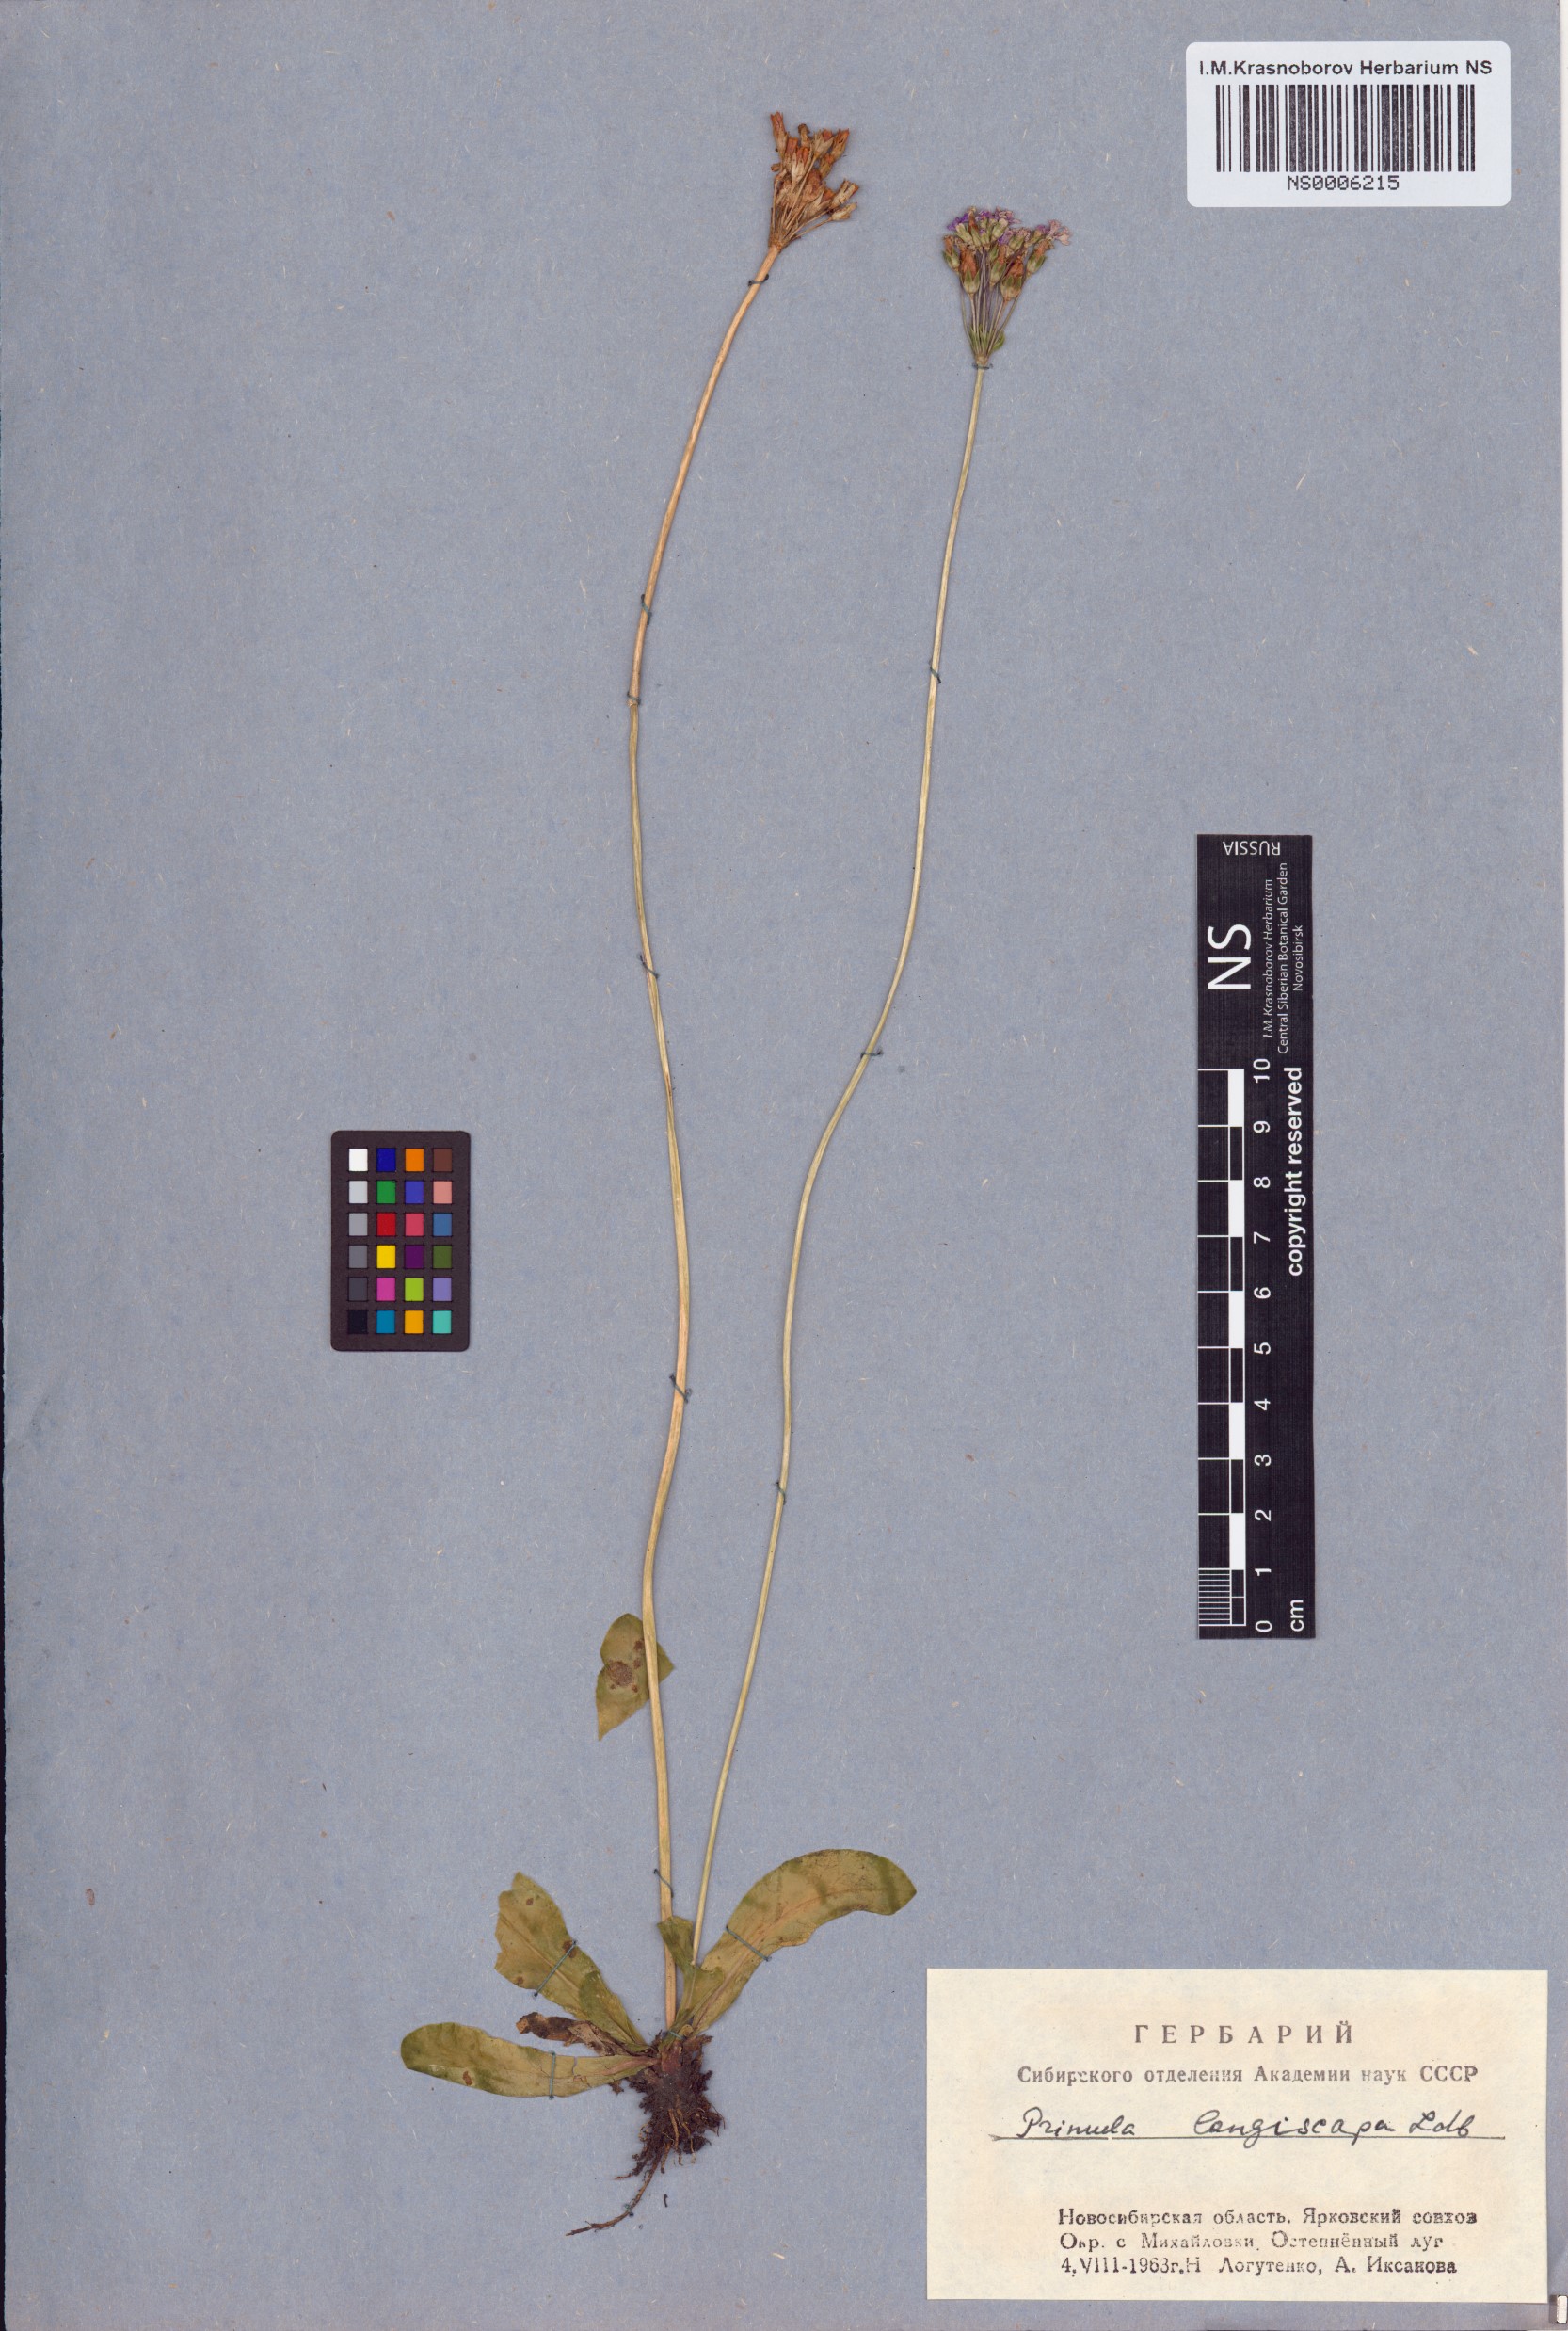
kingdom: Plantae
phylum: Tracheophyta
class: Magnoliopsida
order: Ericales
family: Primulaceae
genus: Primula
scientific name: Primula longiscapa
